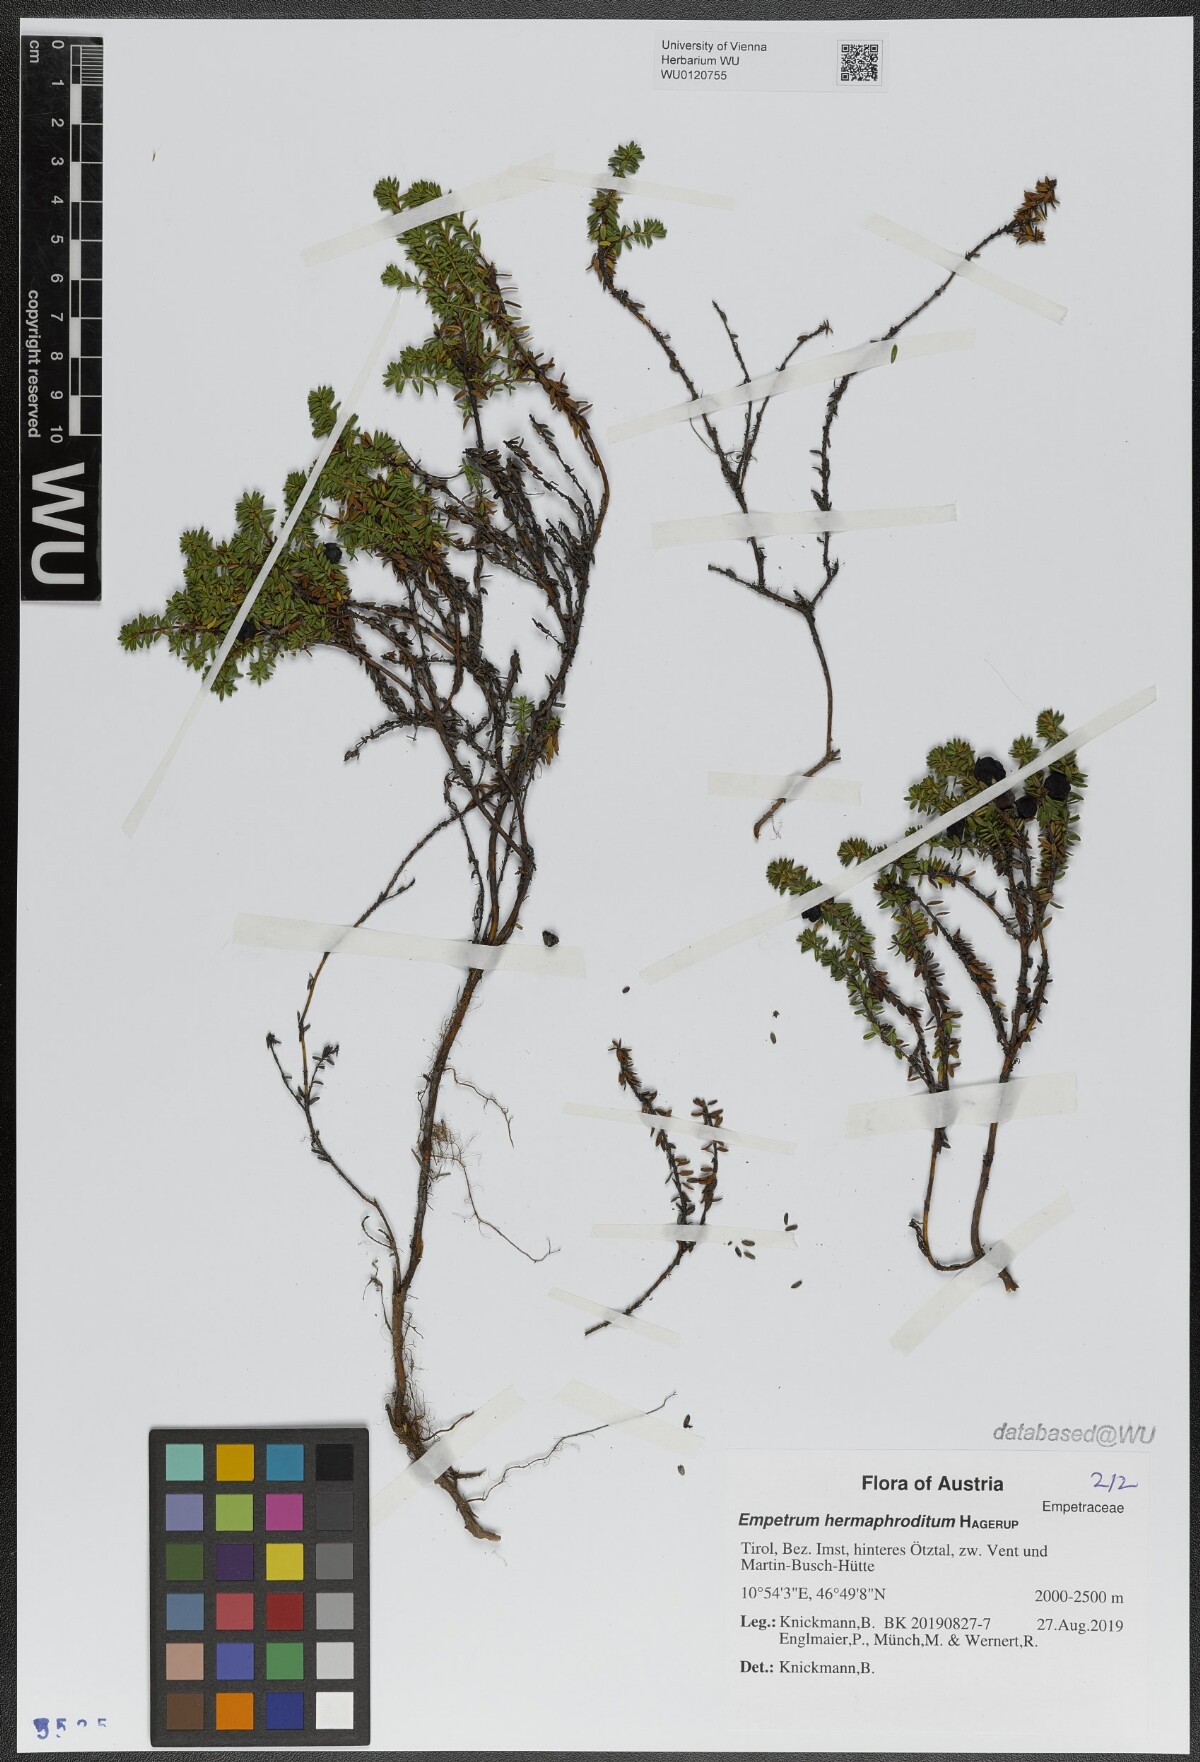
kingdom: Plantae
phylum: Tracheophyta
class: Magnoliopsida
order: Ericales
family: Ericaceae
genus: Empetrum
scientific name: Empetrum hermaphroditum
